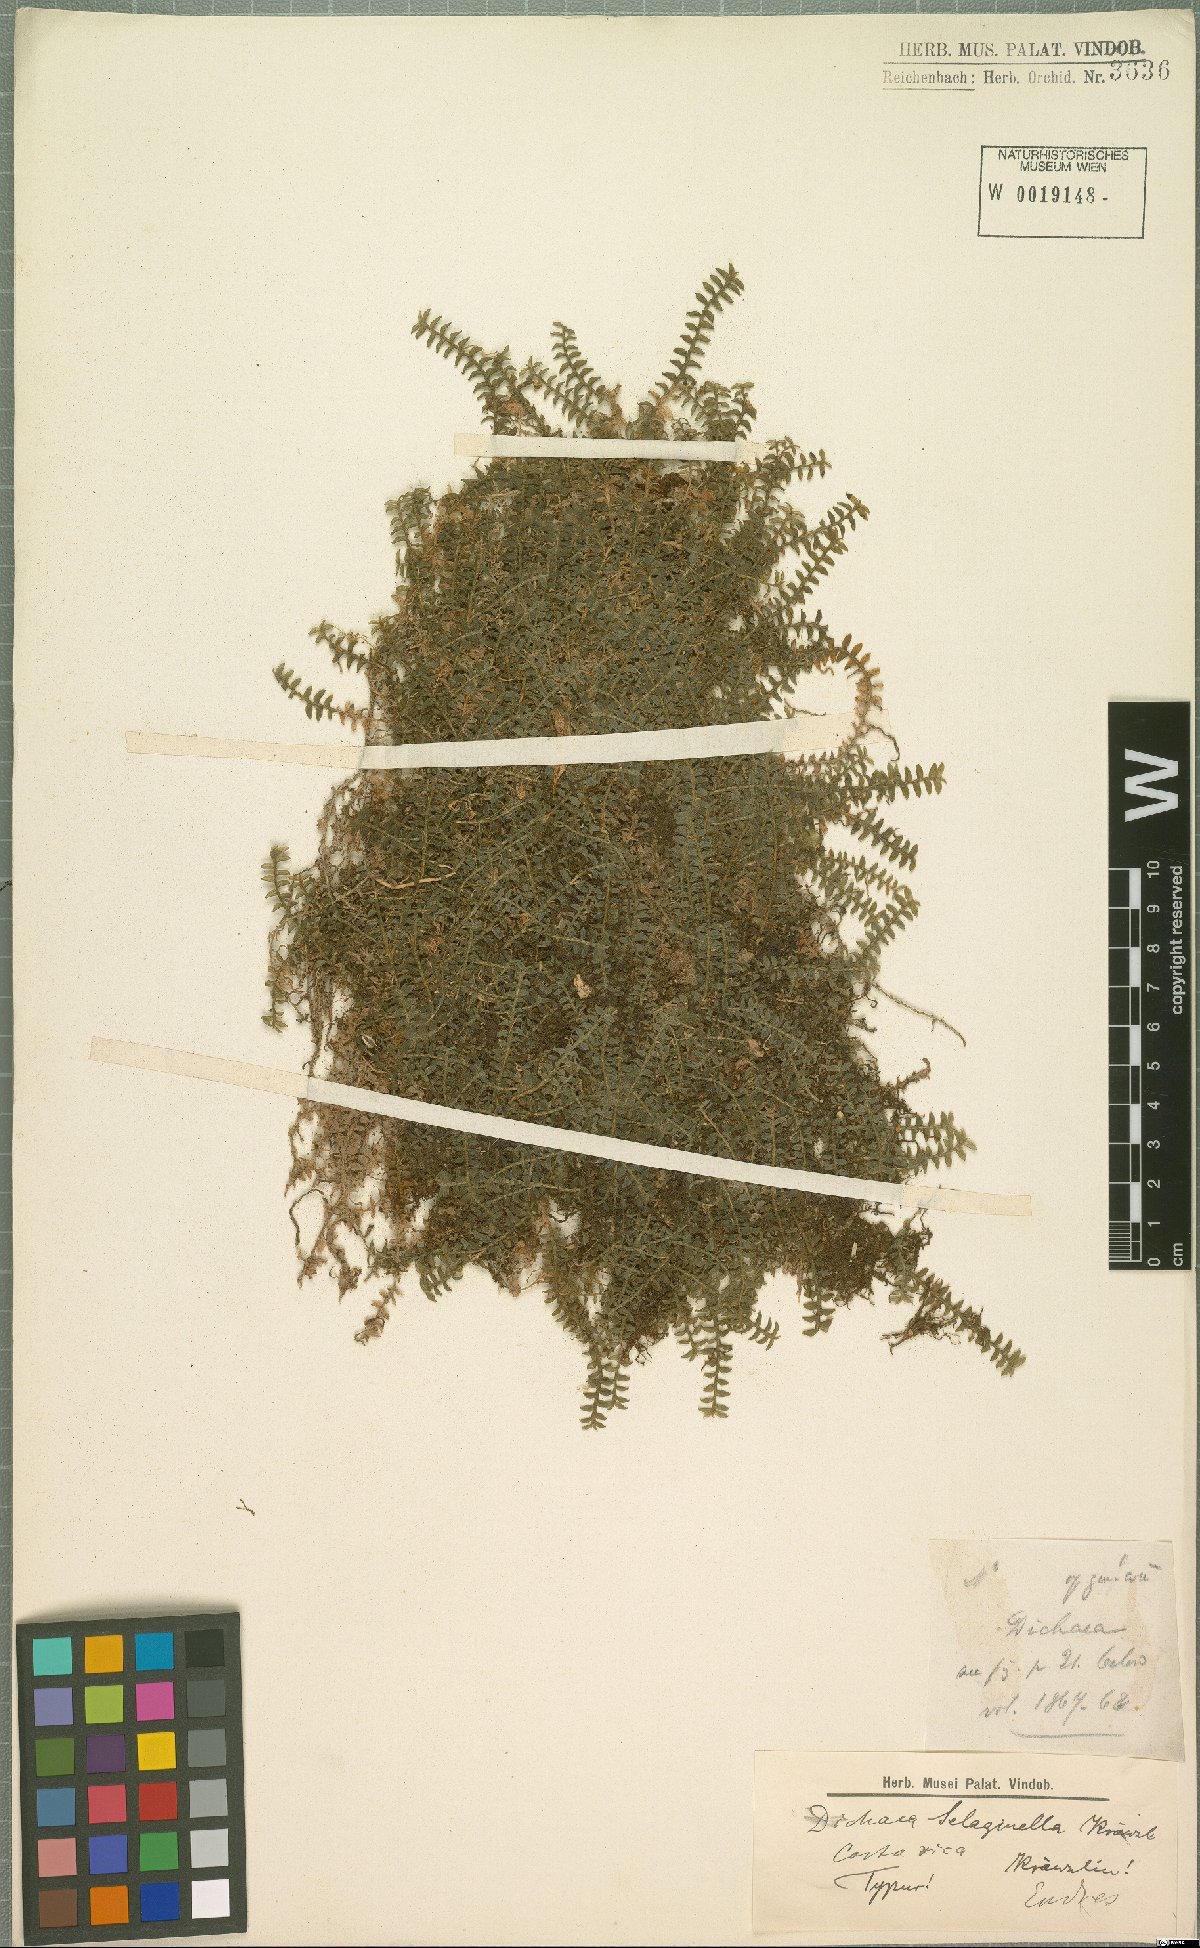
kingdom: Plantae
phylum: Tracheophyta
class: Liliopsida
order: Asparagales
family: Orchidaceae
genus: Dichaea
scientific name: Dichaea selaginella
